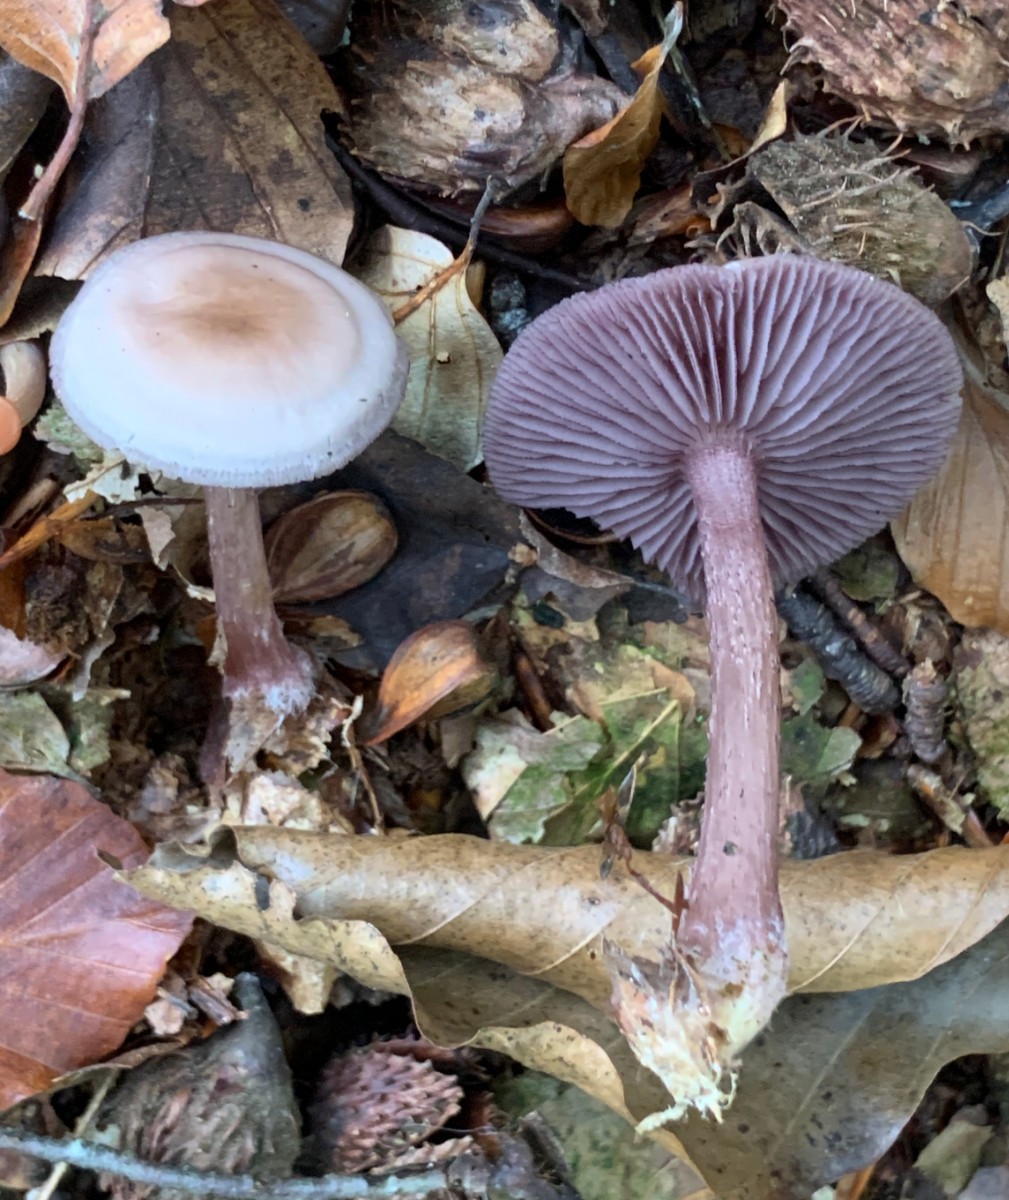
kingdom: Fungi
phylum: Basidiomycota
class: Agaricomycetes
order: Agaricales
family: Mycenaceae
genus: Mycena
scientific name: Mycena pelianthina
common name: mørkbladet huesvamp
